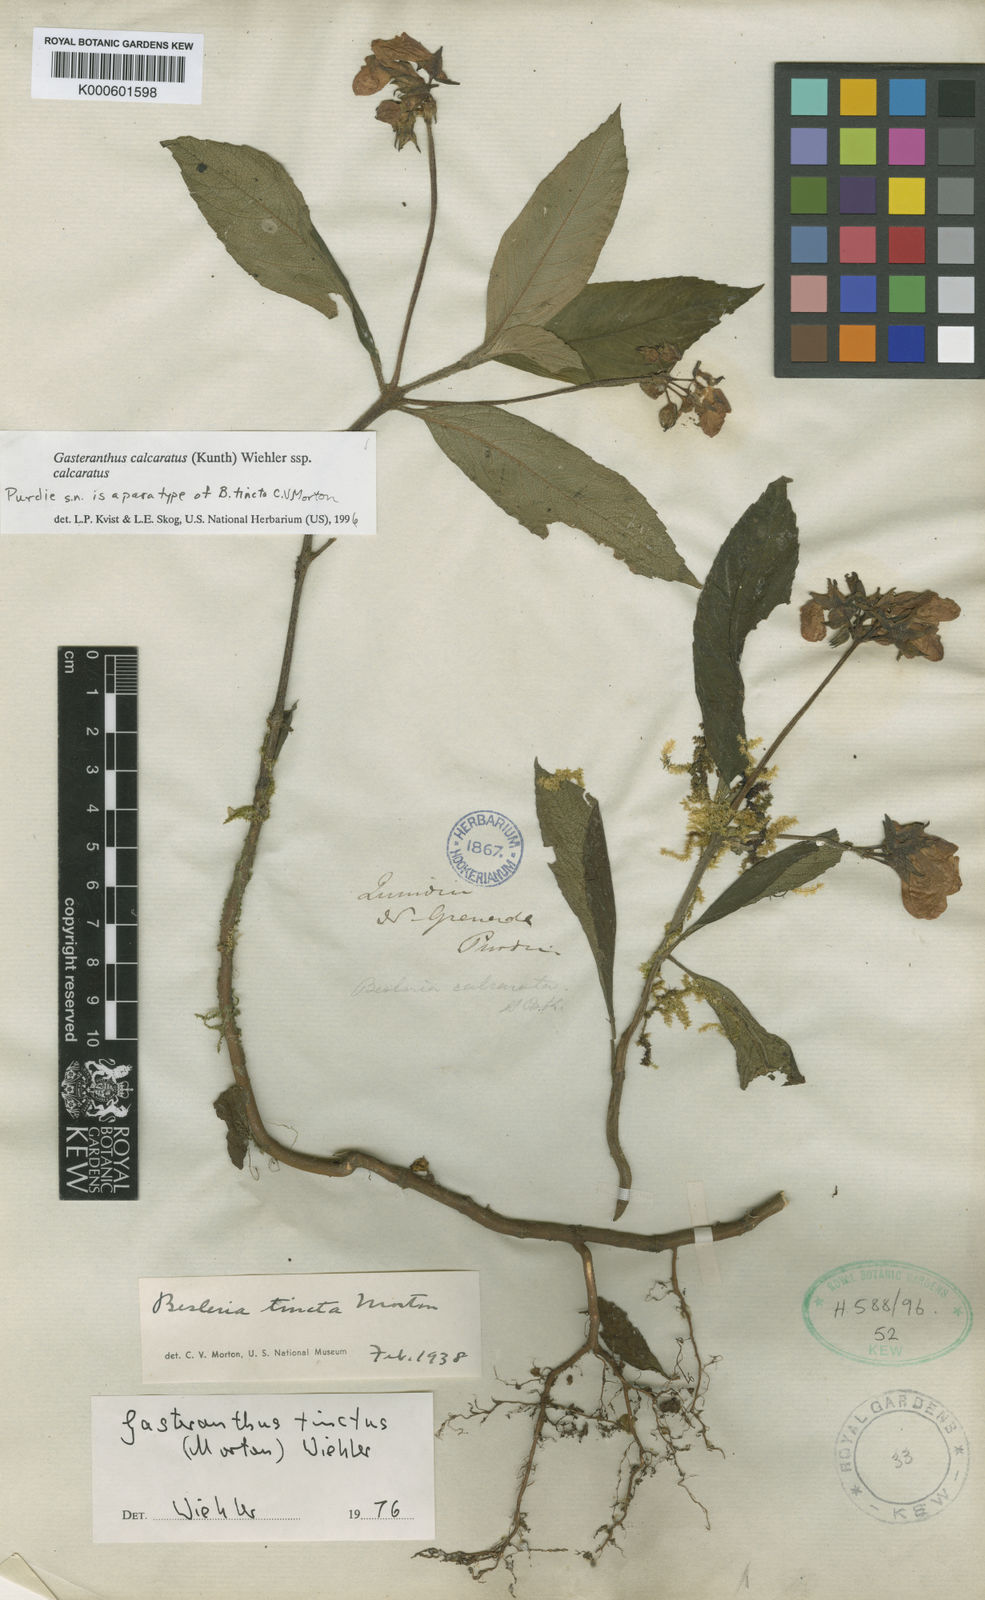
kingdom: Plantae
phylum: Tracheophyta
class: Magnoliopsida
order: Lamiales
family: Gesneriaceae
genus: Gasteranthus
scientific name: Gasteranthus calcaratus
